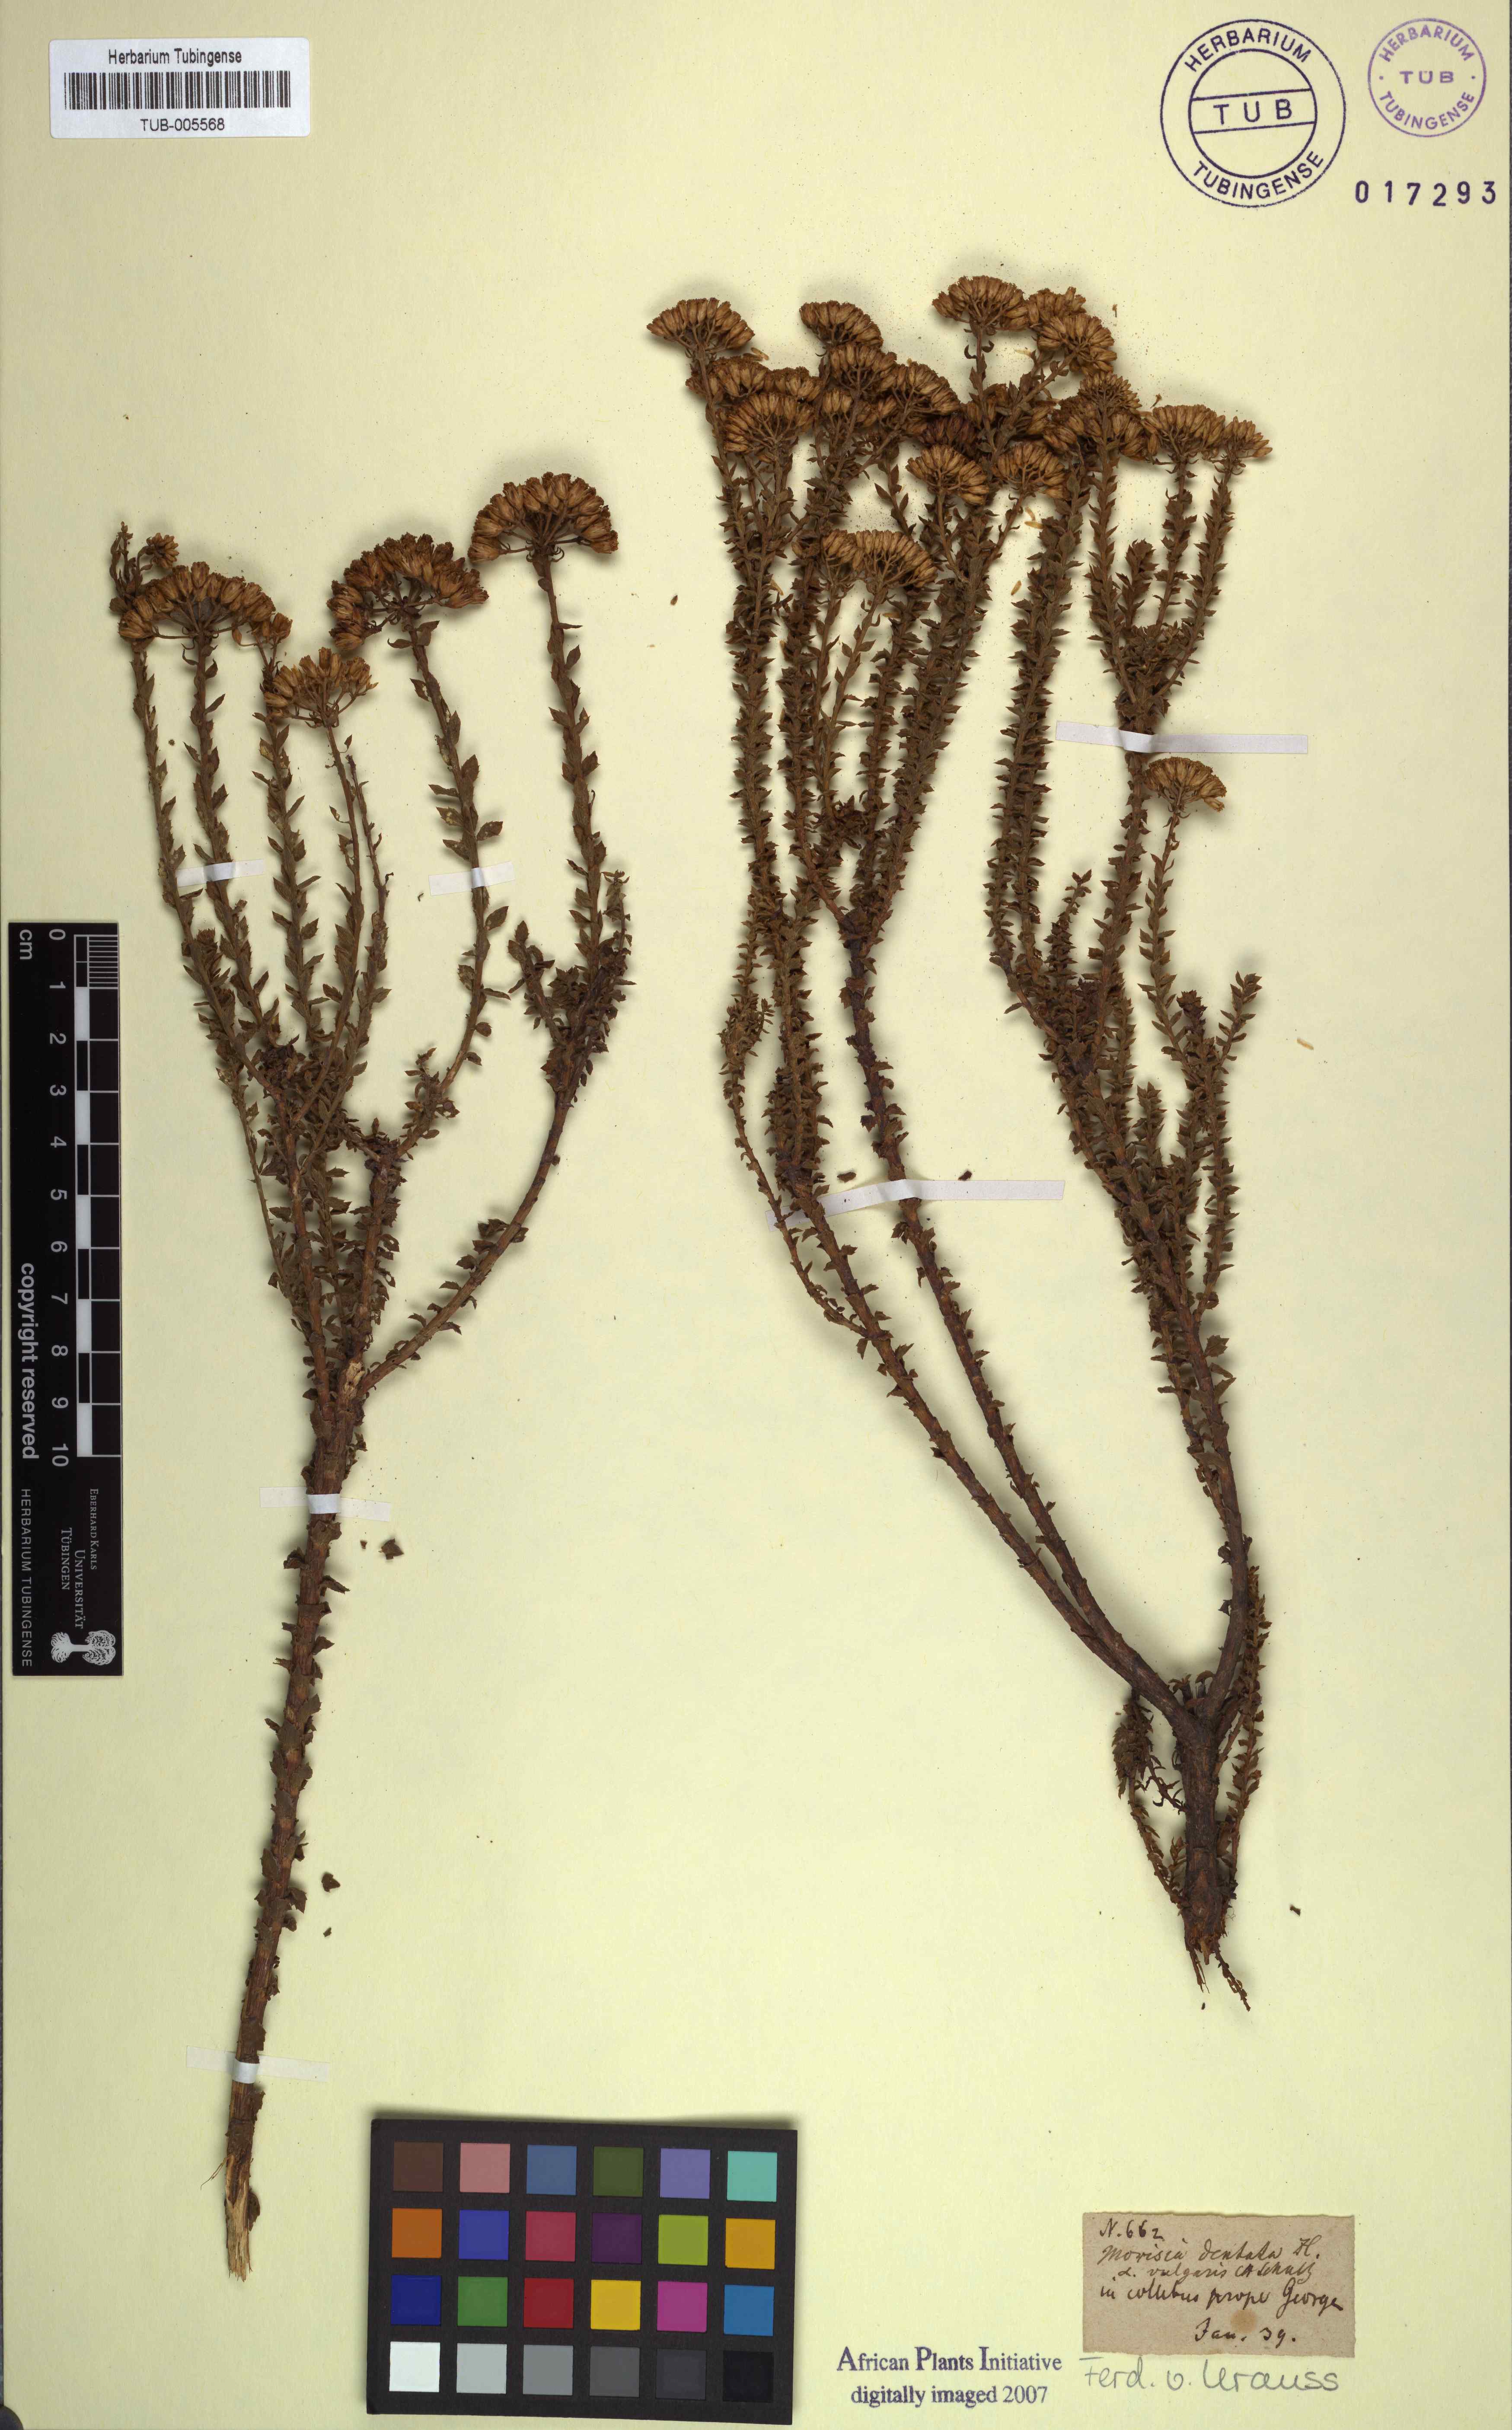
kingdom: Plantae
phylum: Tracheophyta
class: Magnoliopsida
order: Asterales
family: Asteraceae
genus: Athanasia
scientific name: Athanasia dentata
